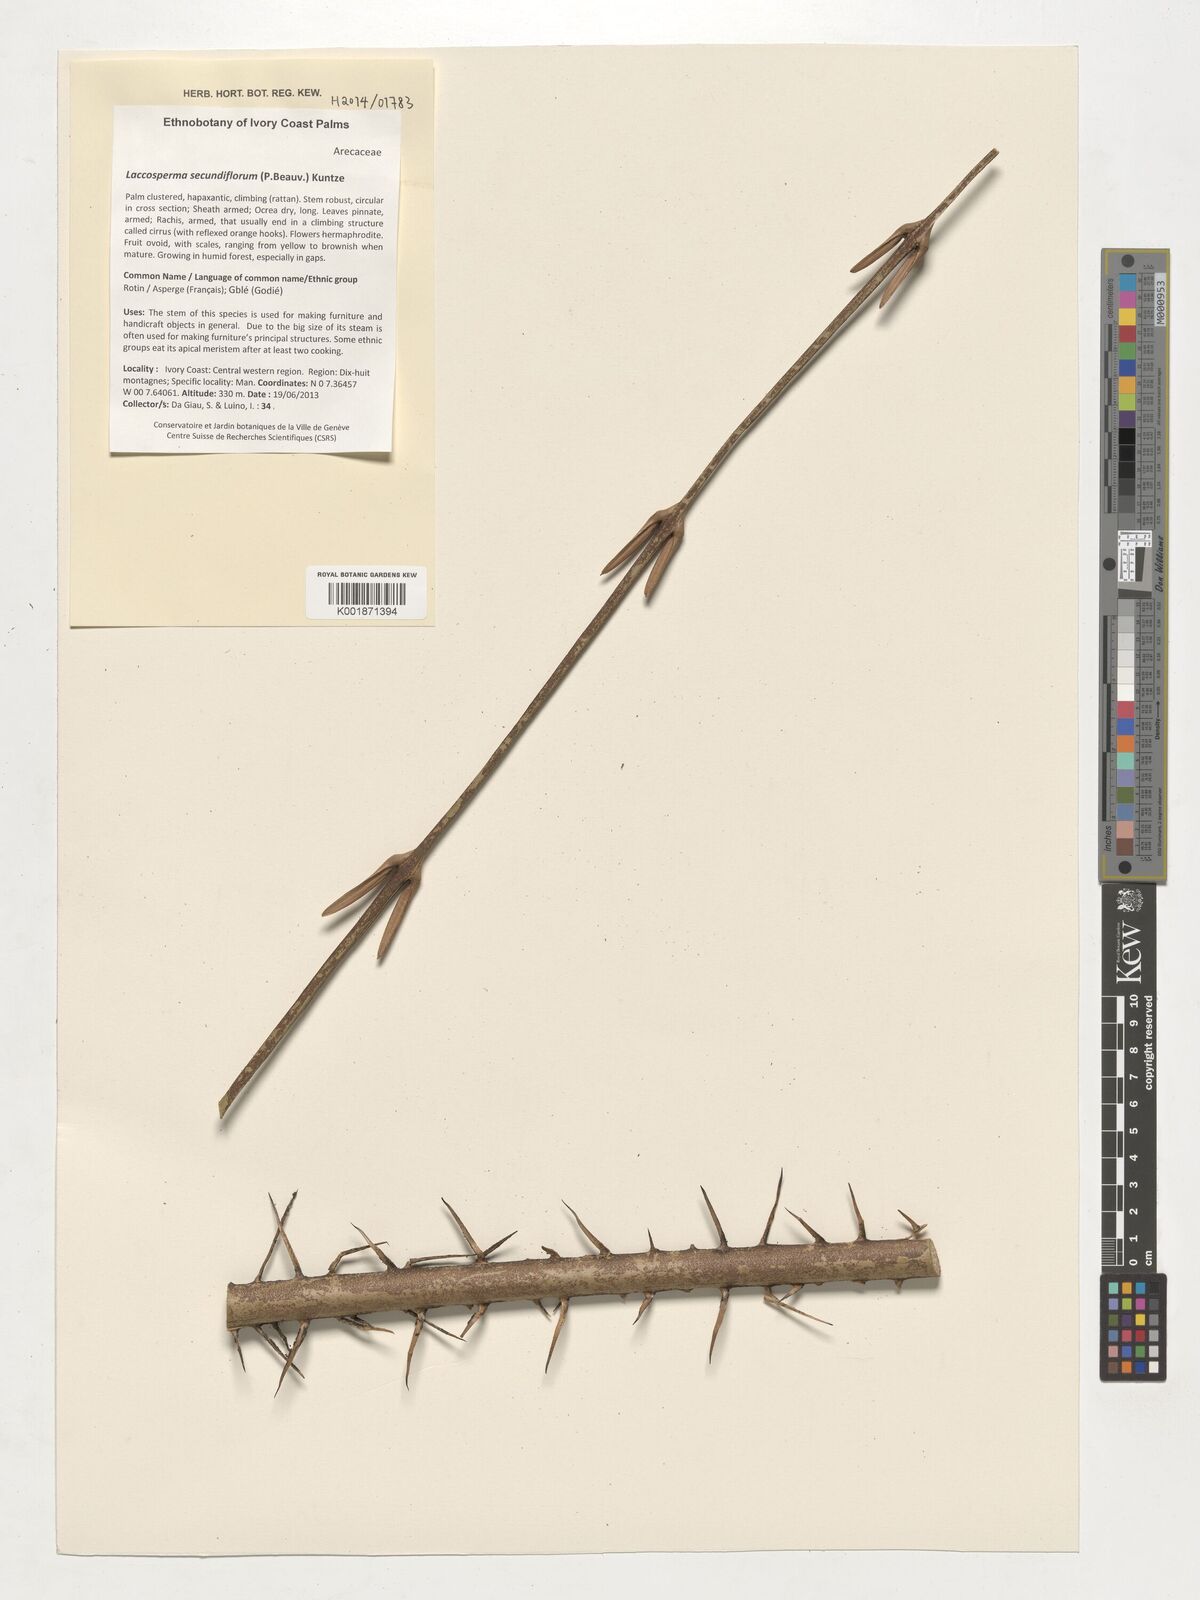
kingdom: Plantae
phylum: Tracheophyta
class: Liliopsida
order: Arecales
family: Arecaceae
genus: Laccosperma
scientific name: Laccosperma secundiflorum
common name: Rattan
